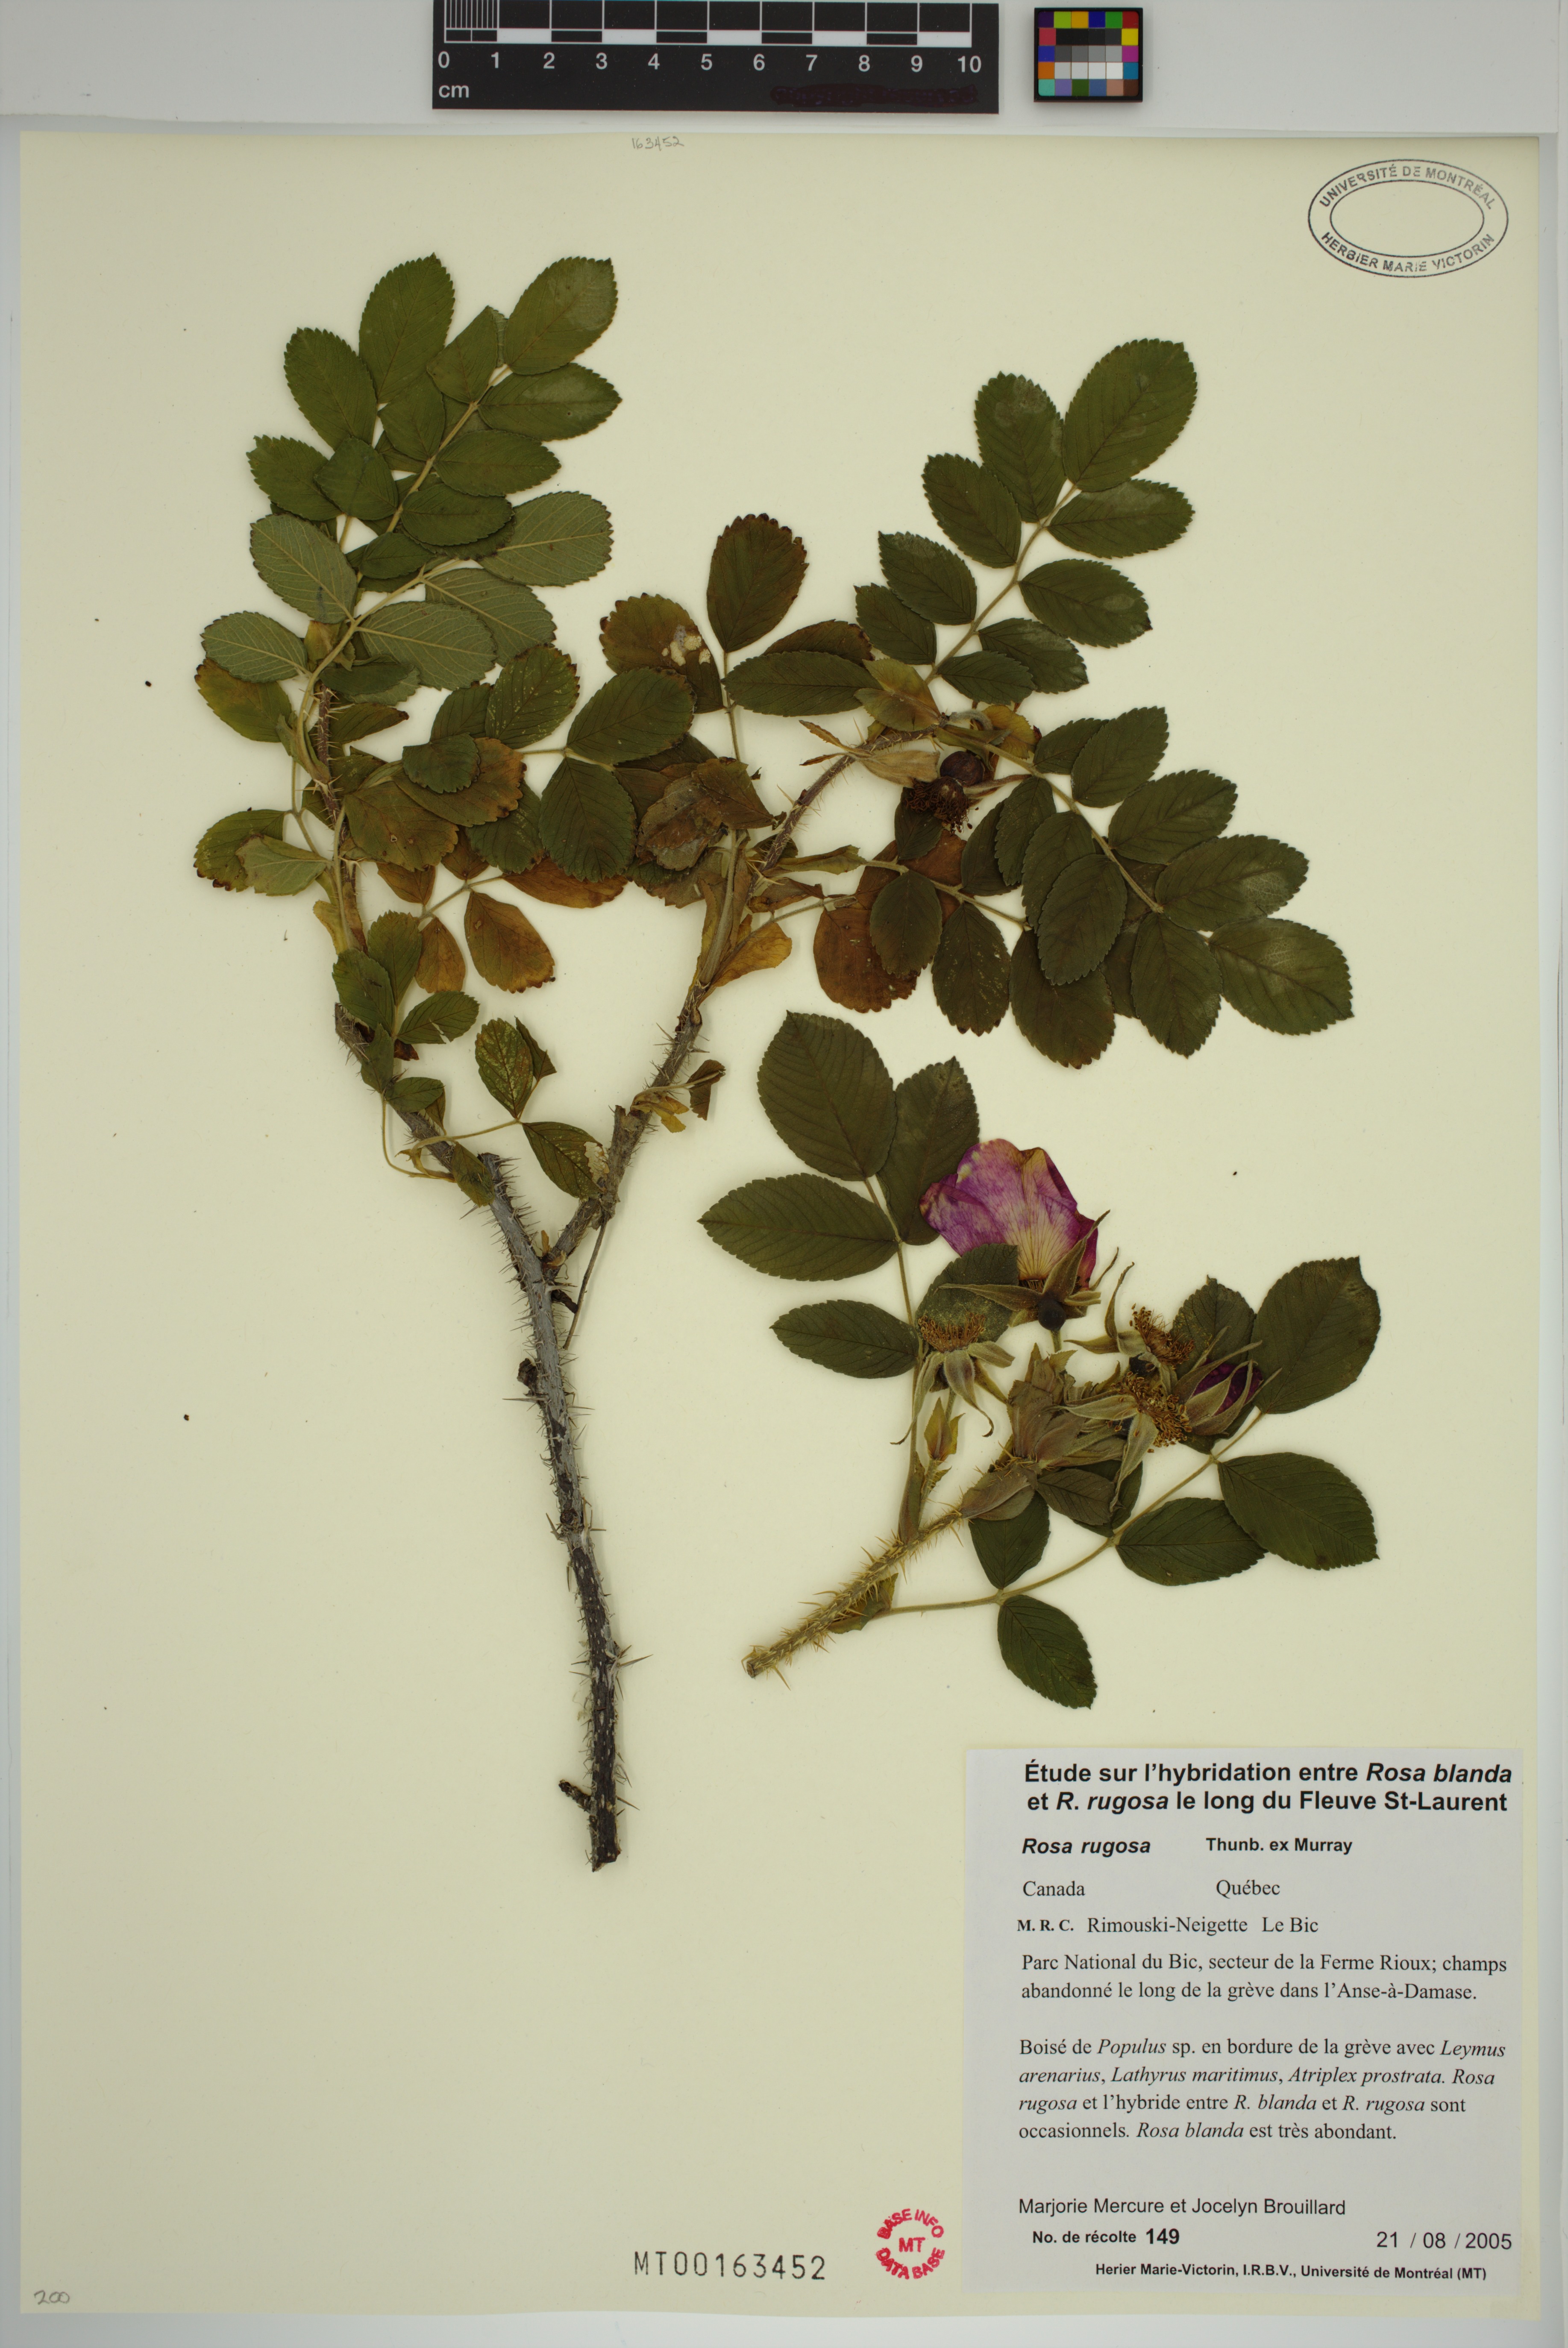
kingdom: Plantae
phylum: Tracheophyta
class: Magnoliopsida
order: Rosales
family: Rosaceae
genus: Rosa
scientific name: Rosa rugosa
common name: Japanese rose
